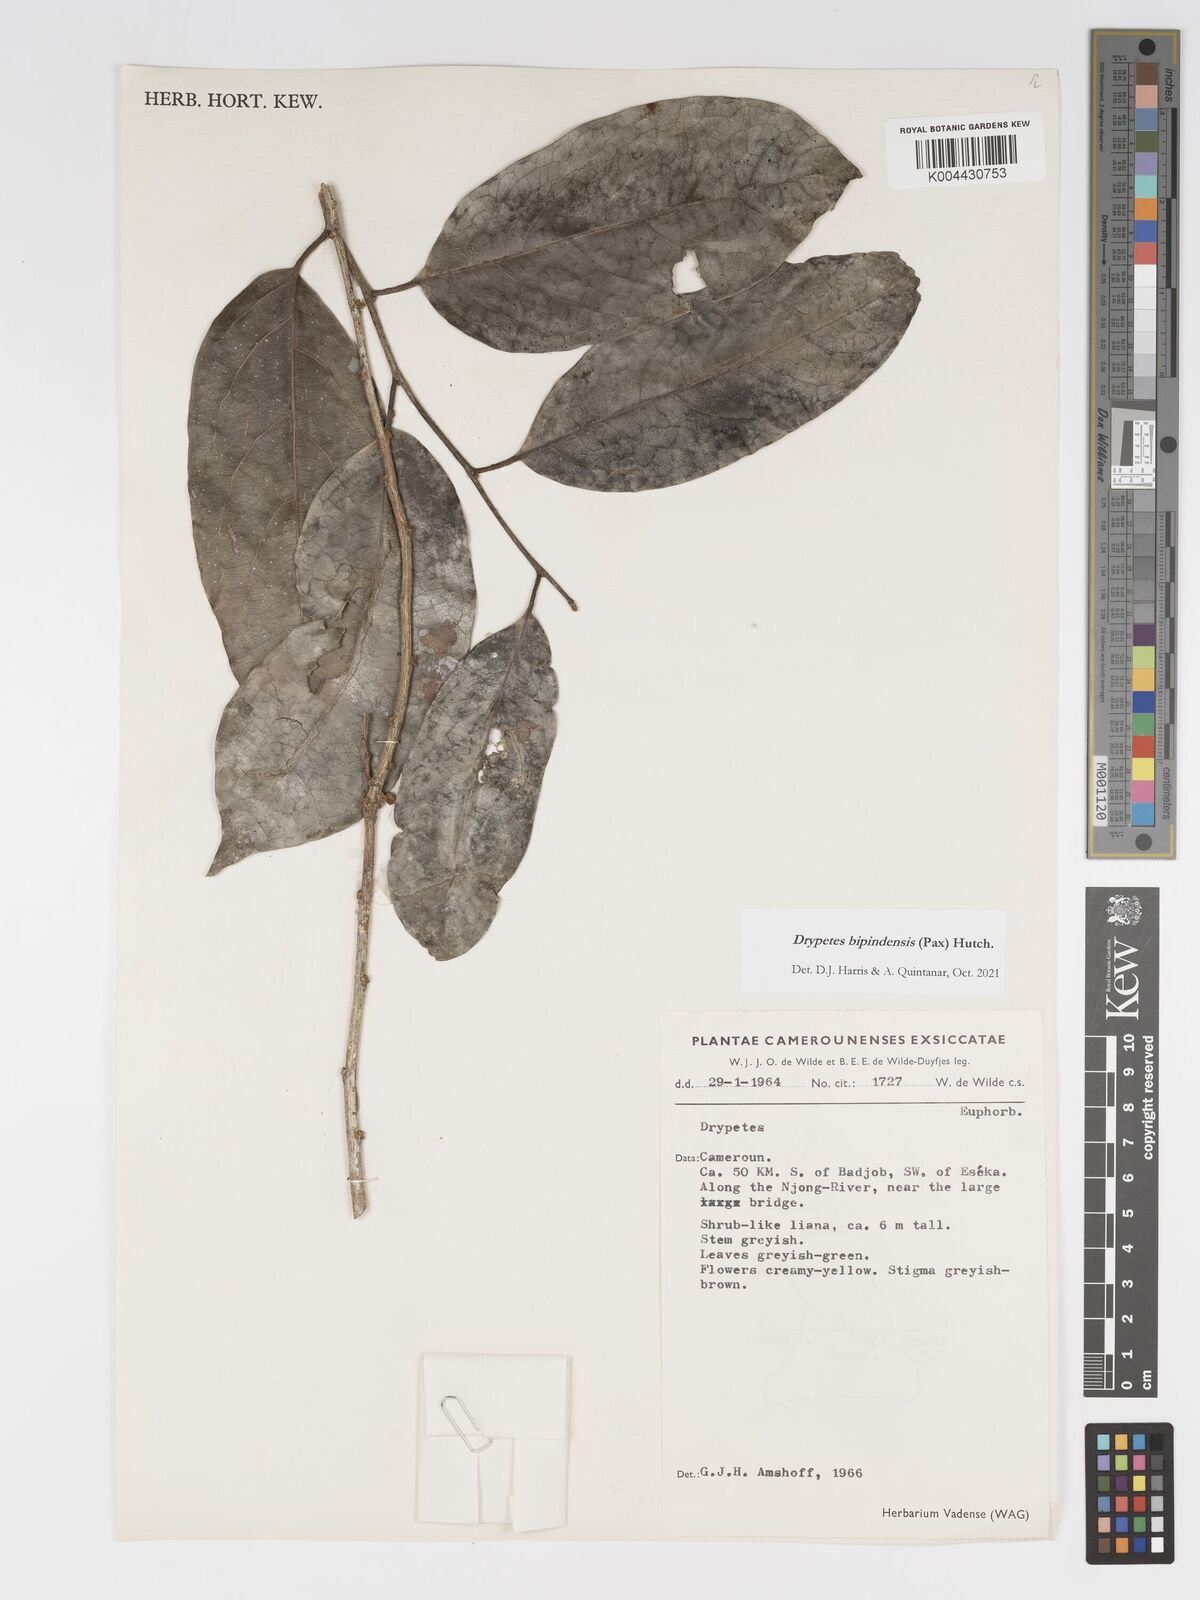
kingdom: Plantae
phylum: Tracheophyta
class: Magnoliopsida
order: Malpighiales
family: Putranjivaceae
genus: Drypetes
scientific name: Drypetes bipindensis
